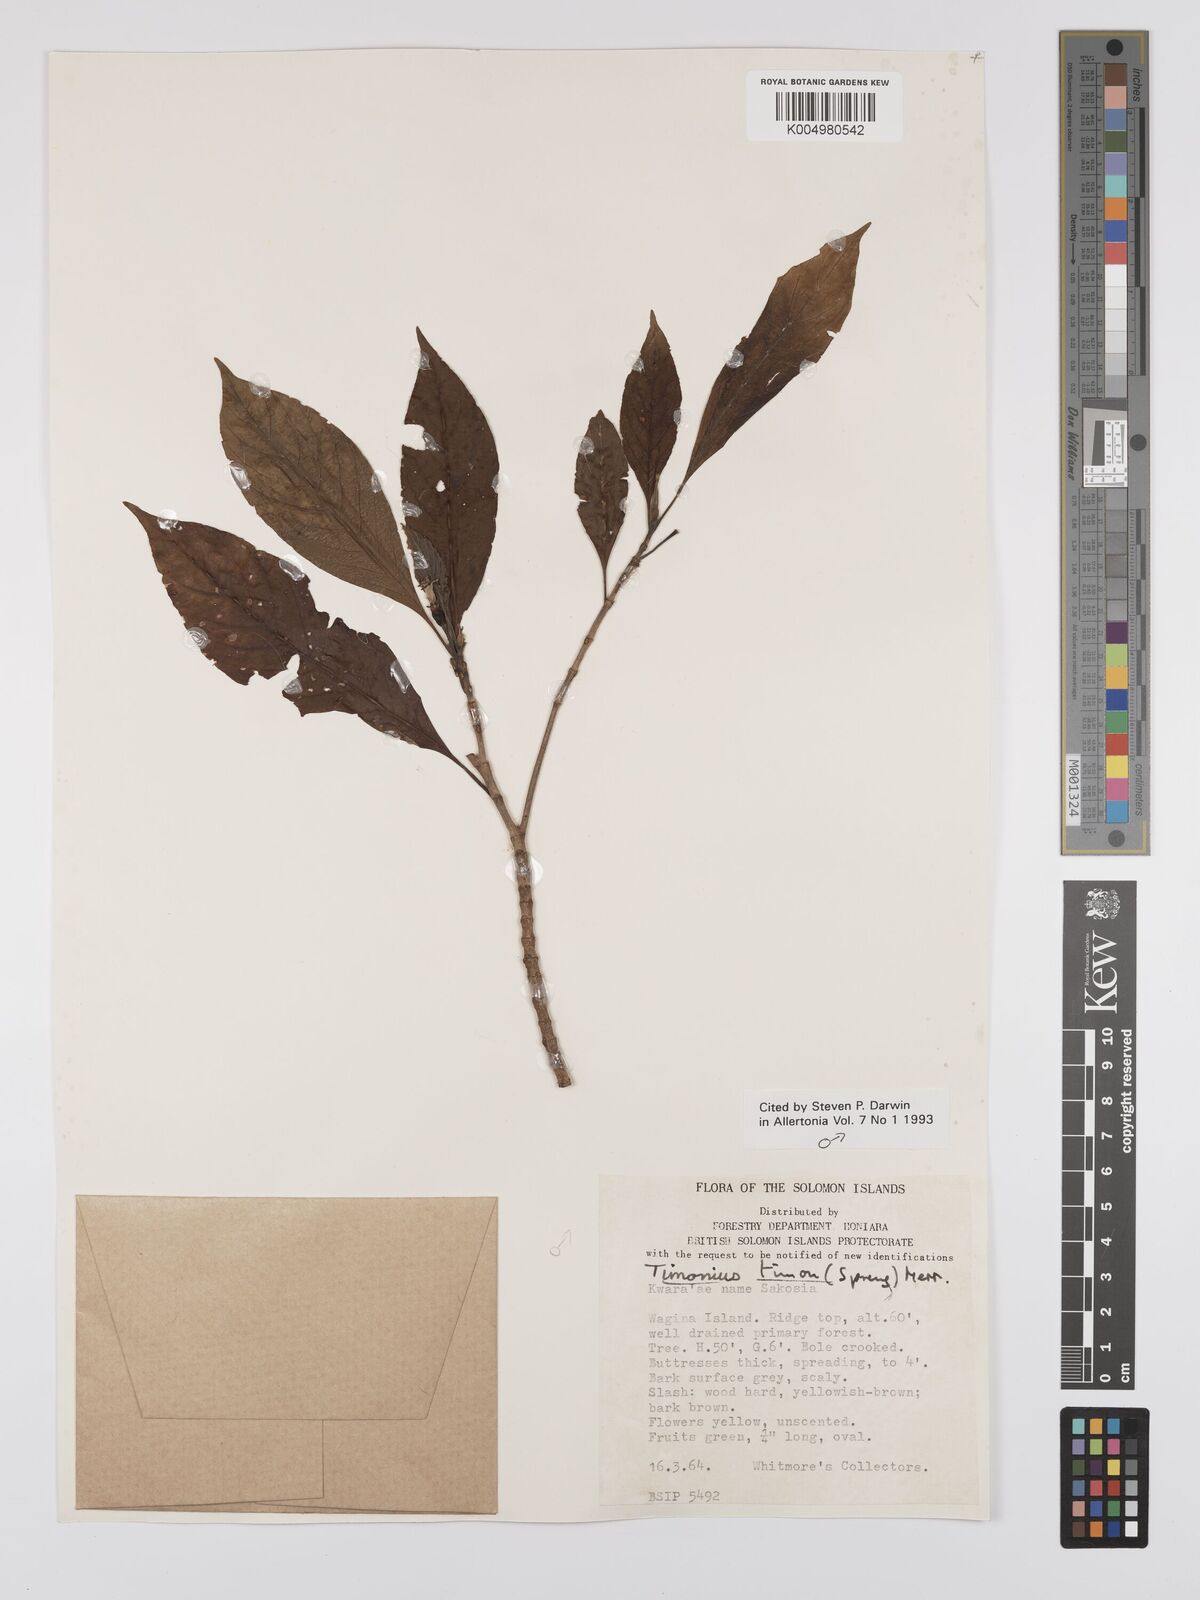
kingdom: Plantae
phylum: Tracheophyta
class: Magnoliopsida
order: Gentianales
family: Rubiaceae
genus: Timonius
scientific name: Timonius timon
